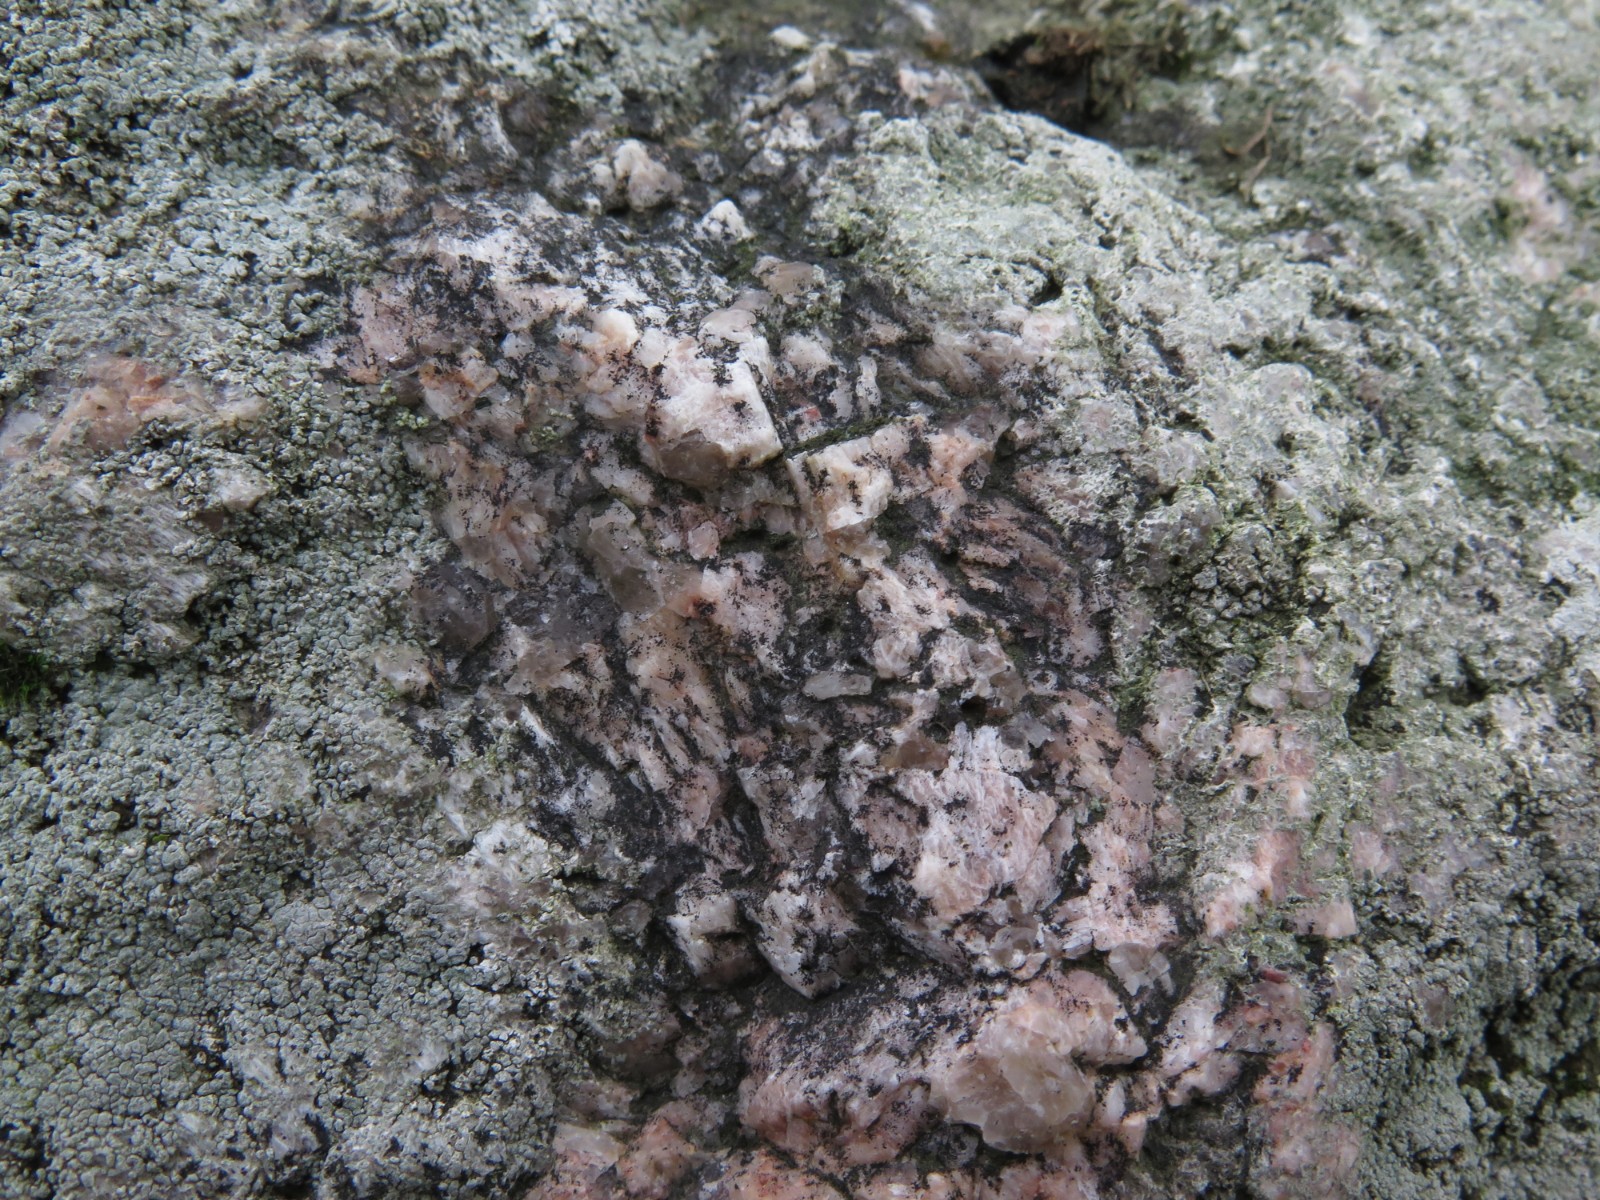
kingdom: Fungi
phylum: Ascomycota
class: Lecanoromycetes
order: Acarosporales
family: Acarosporaceae
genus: Acarospora
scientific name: Acarospora privigna
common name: sort foldekantlav
